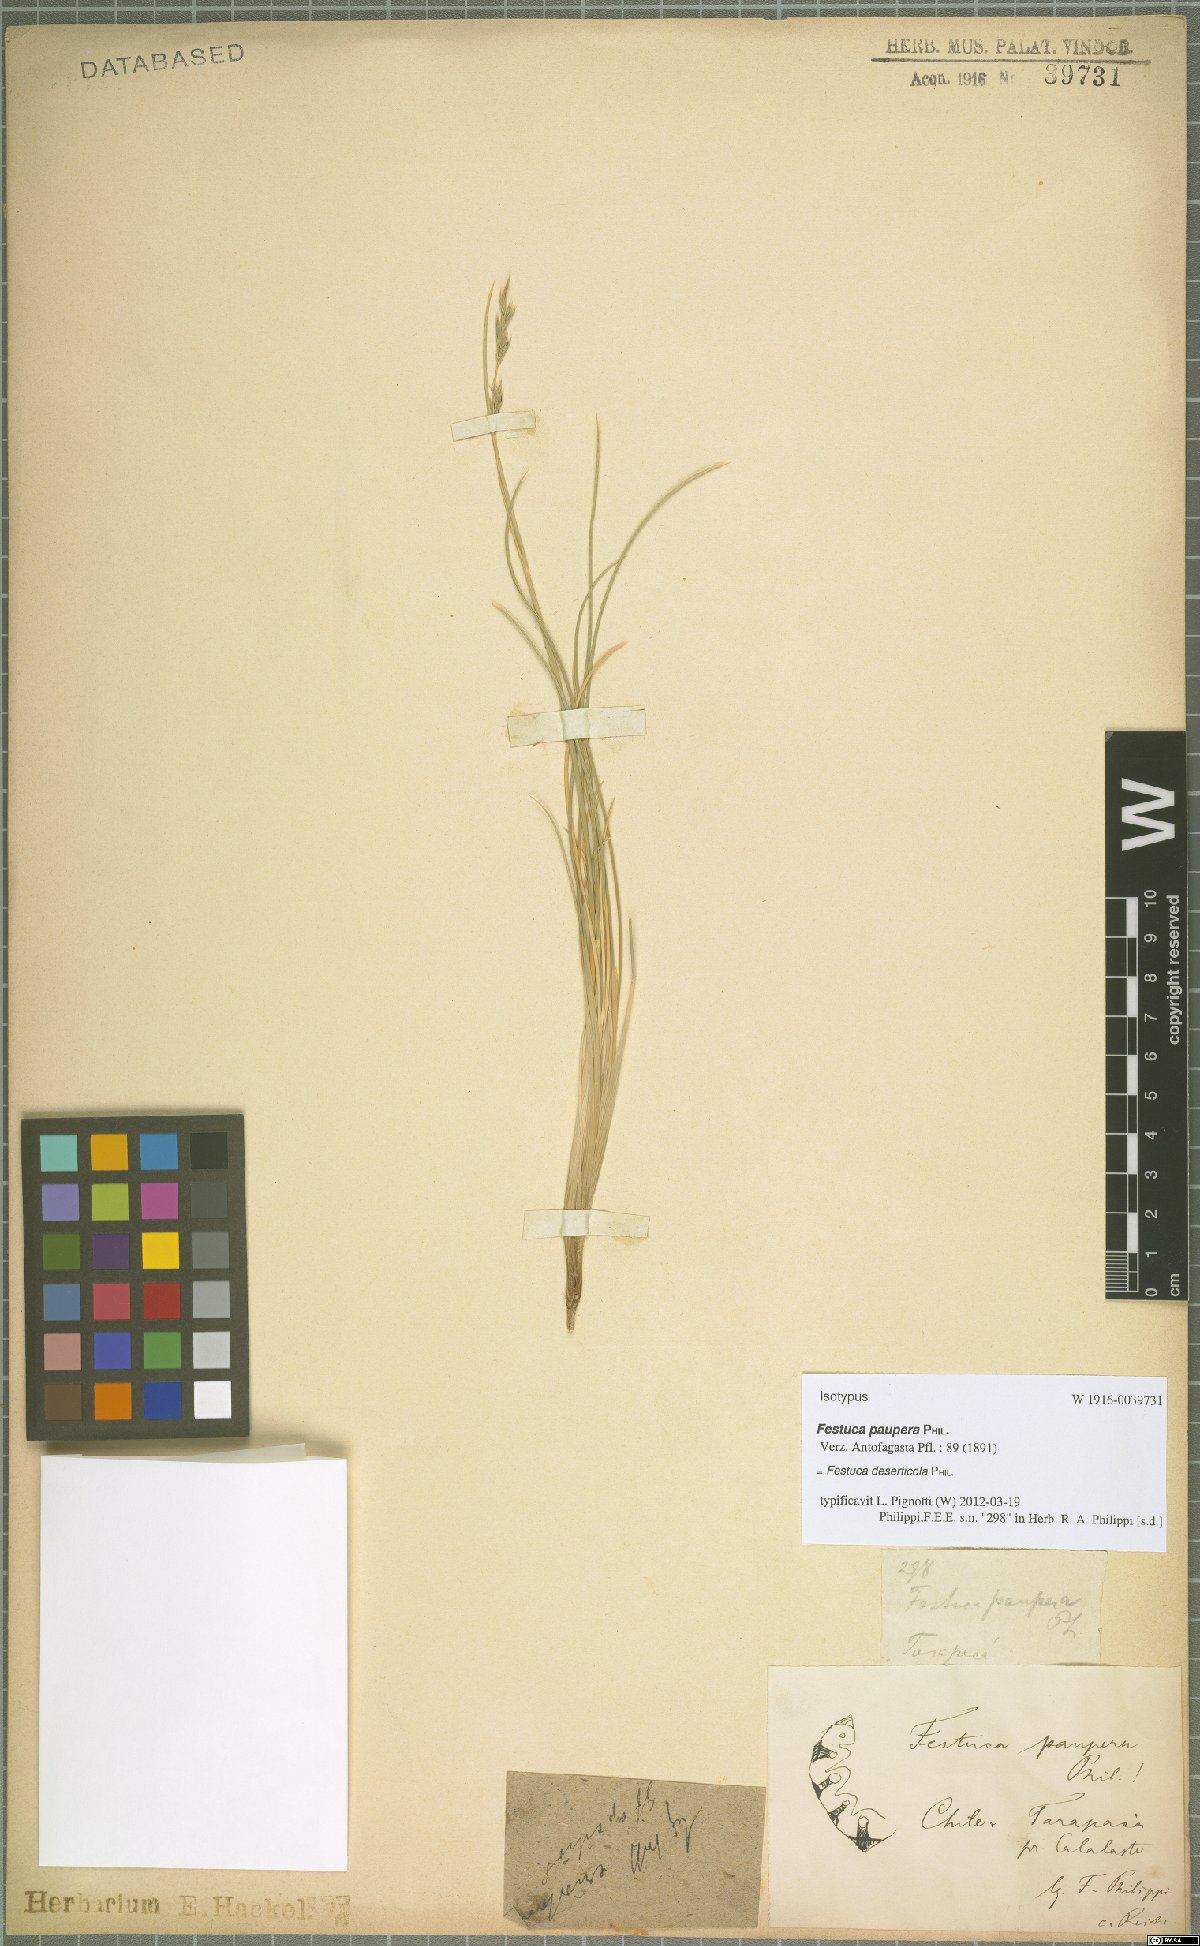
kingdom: Plantae
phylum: Tracheophyta
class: Liliopsida
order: Poales
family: Poaceae
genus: Festuca
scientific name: Festuca rigescens
